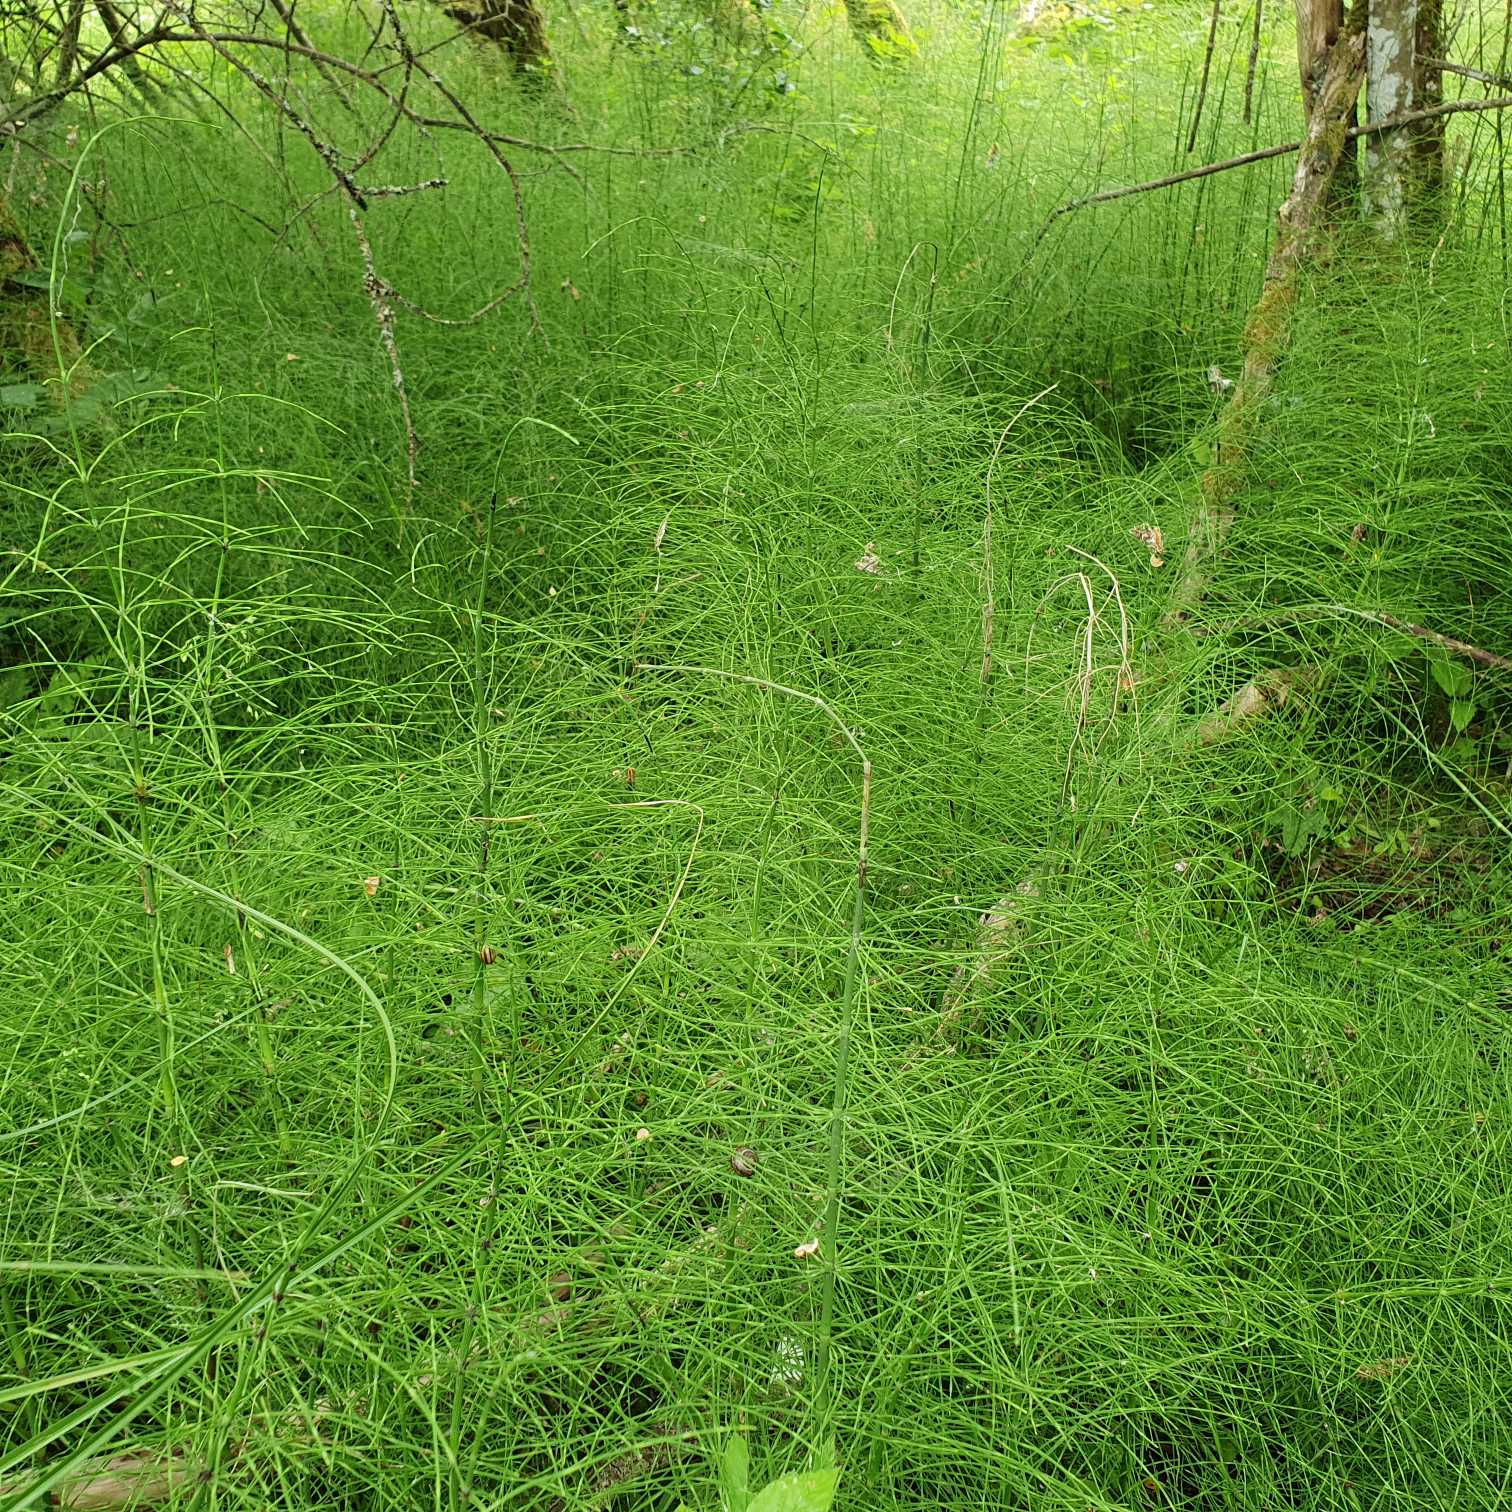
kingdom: Plantae
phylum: Tracheophyta
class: Polypodiopsida
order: Equisetales
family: Equisetaceae
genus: Equisetum
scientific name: Equisetum fluviatile
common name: Dynd-padderok
